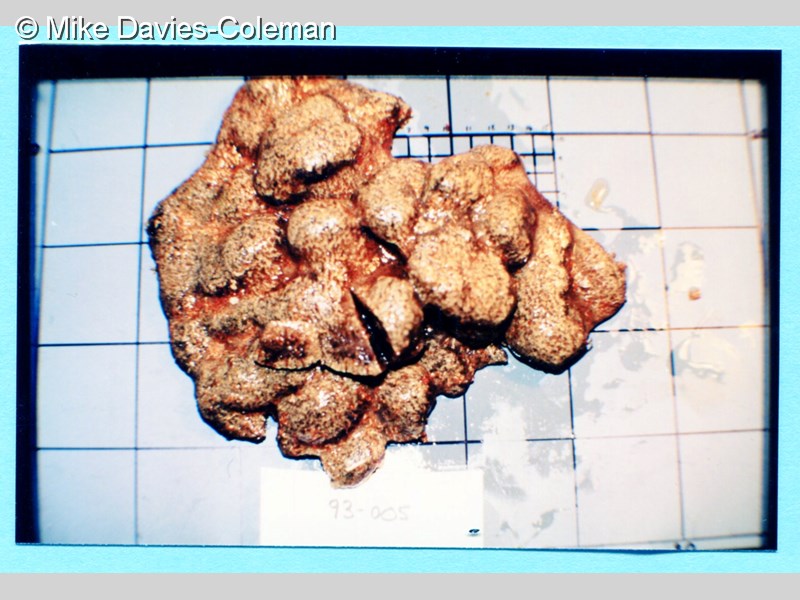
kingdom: Animalia
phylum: Chordata
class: Ascidiacea
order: Stolidobranchia
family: Styelidae
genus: Botryllus
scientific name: Botryllus
